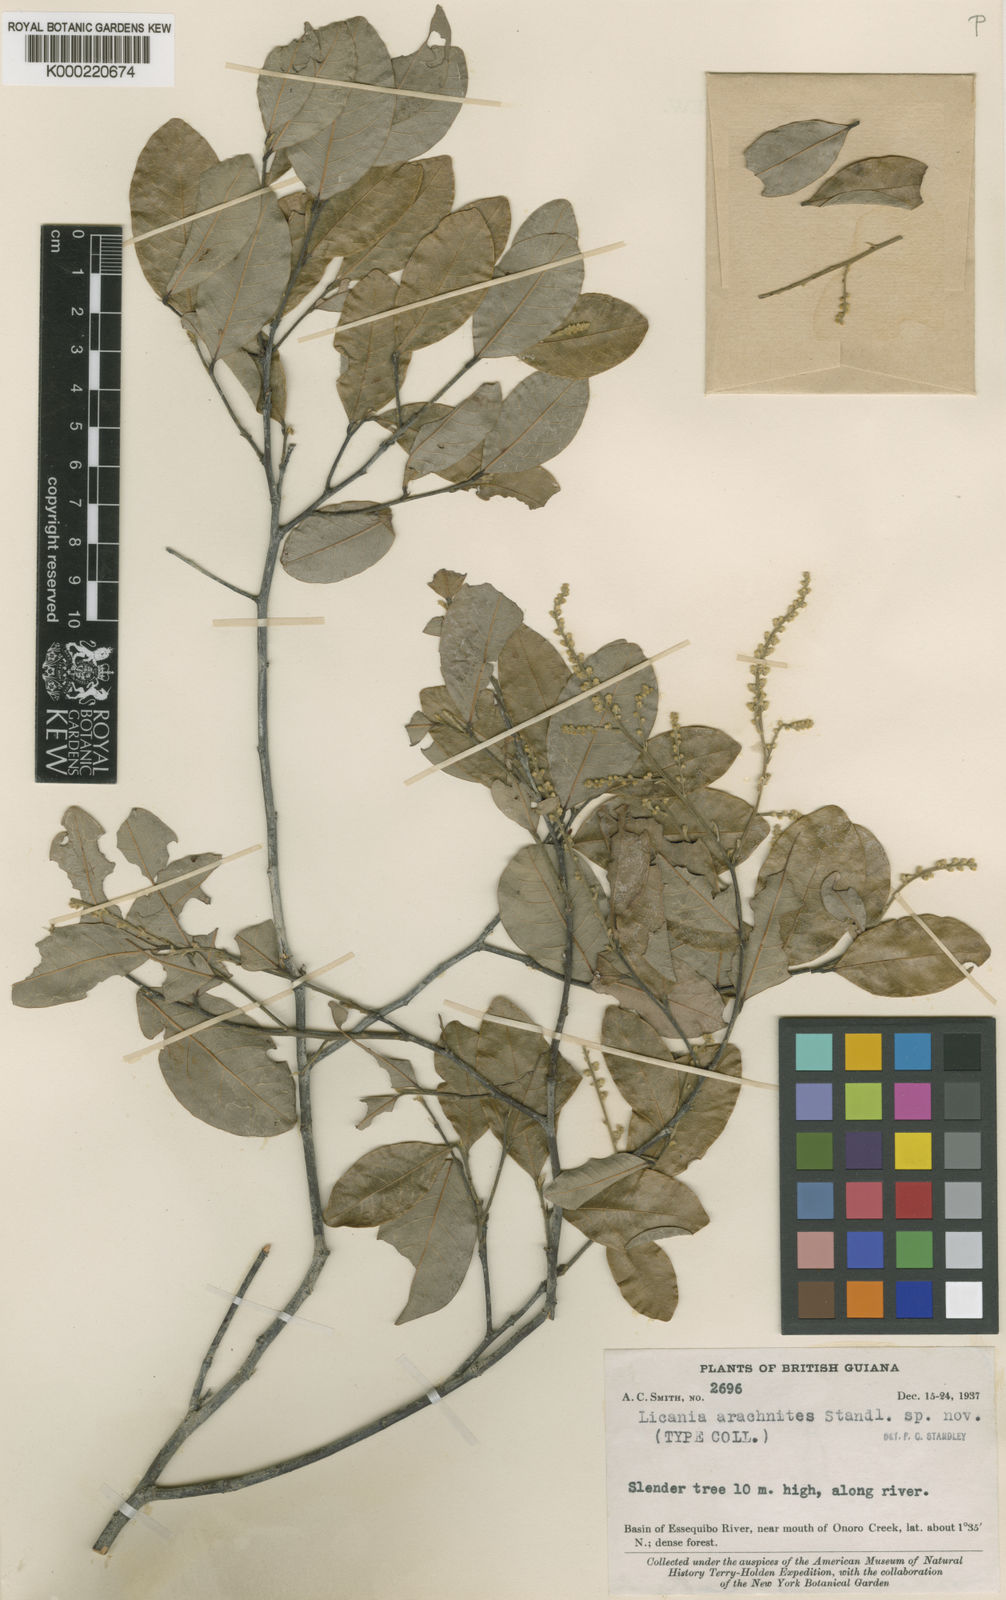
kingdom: Plantae
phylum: Tracheophyta
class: Magnoliopsida
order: Malpighiales
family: Chrysobalanaceae
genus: Licania
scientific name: Licania parvifolia
